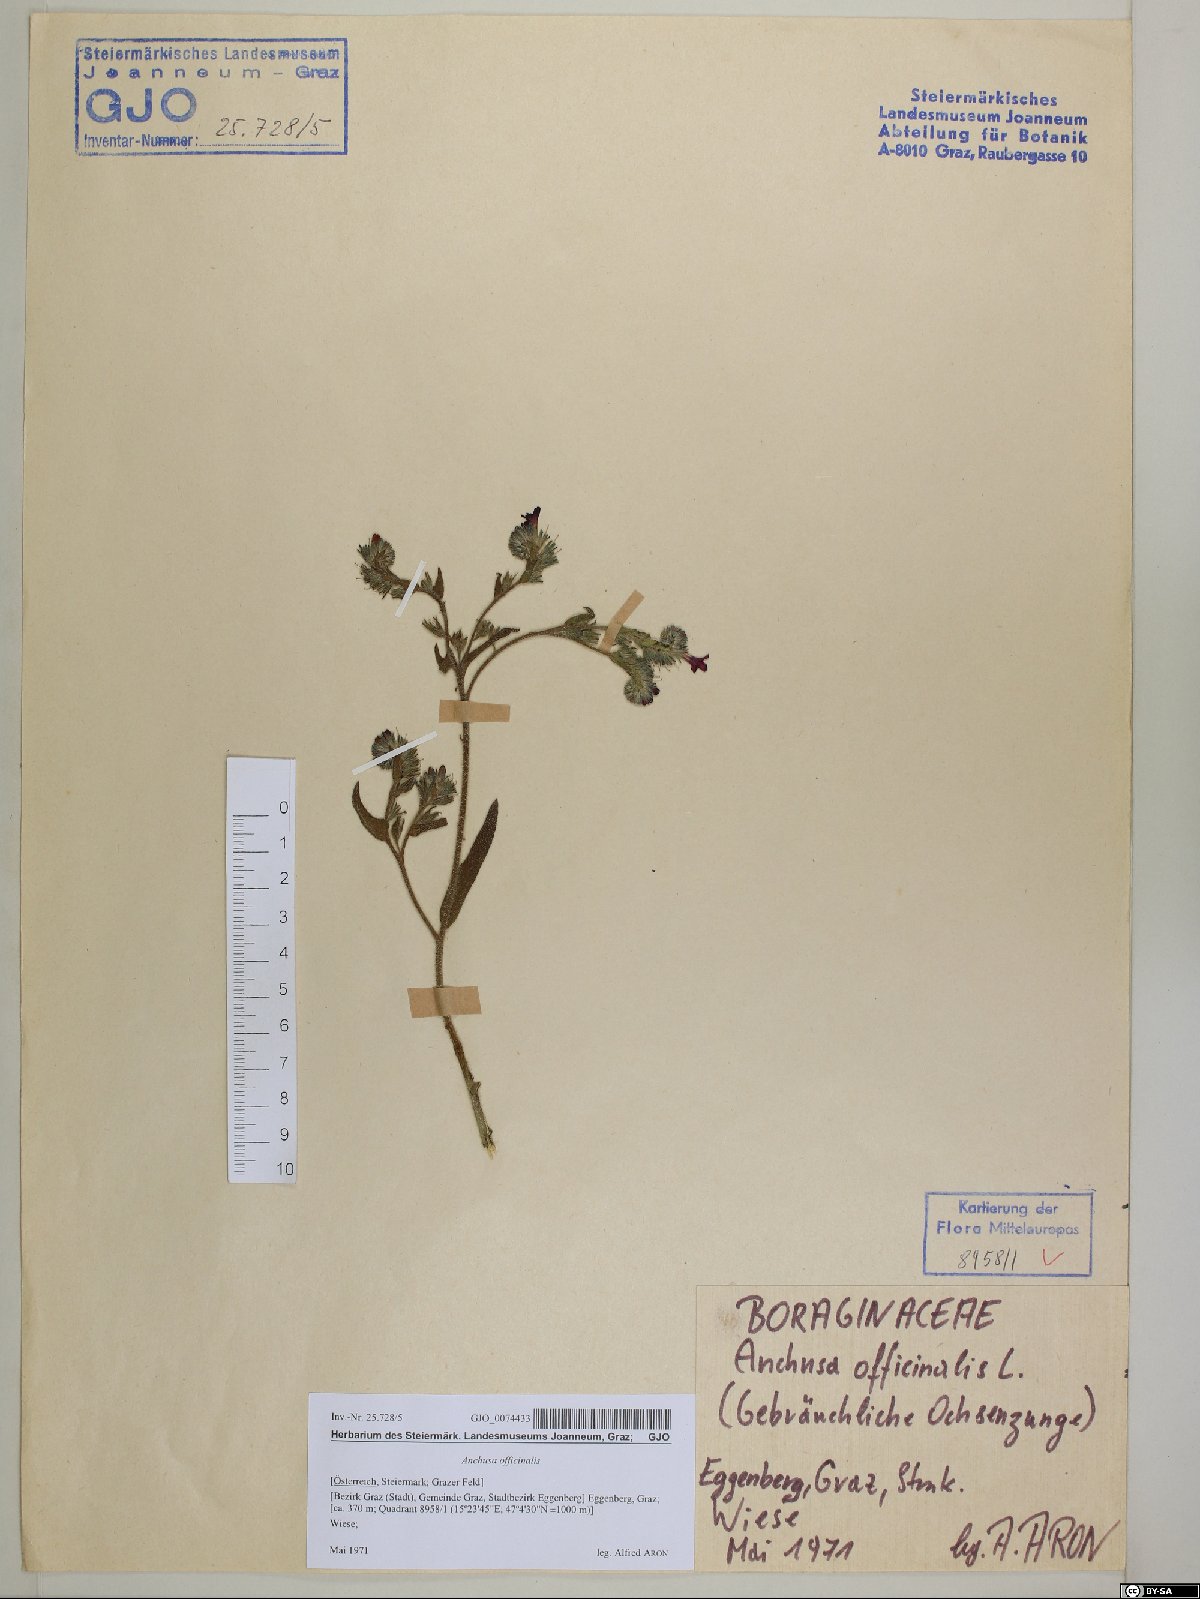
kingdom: Plantae
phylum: Tracheophyta
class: Magnoliopsida
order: Boraginales
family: Boraginaceae
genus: Anchusa
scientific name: Anchusa officinalis
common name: Alkanet
